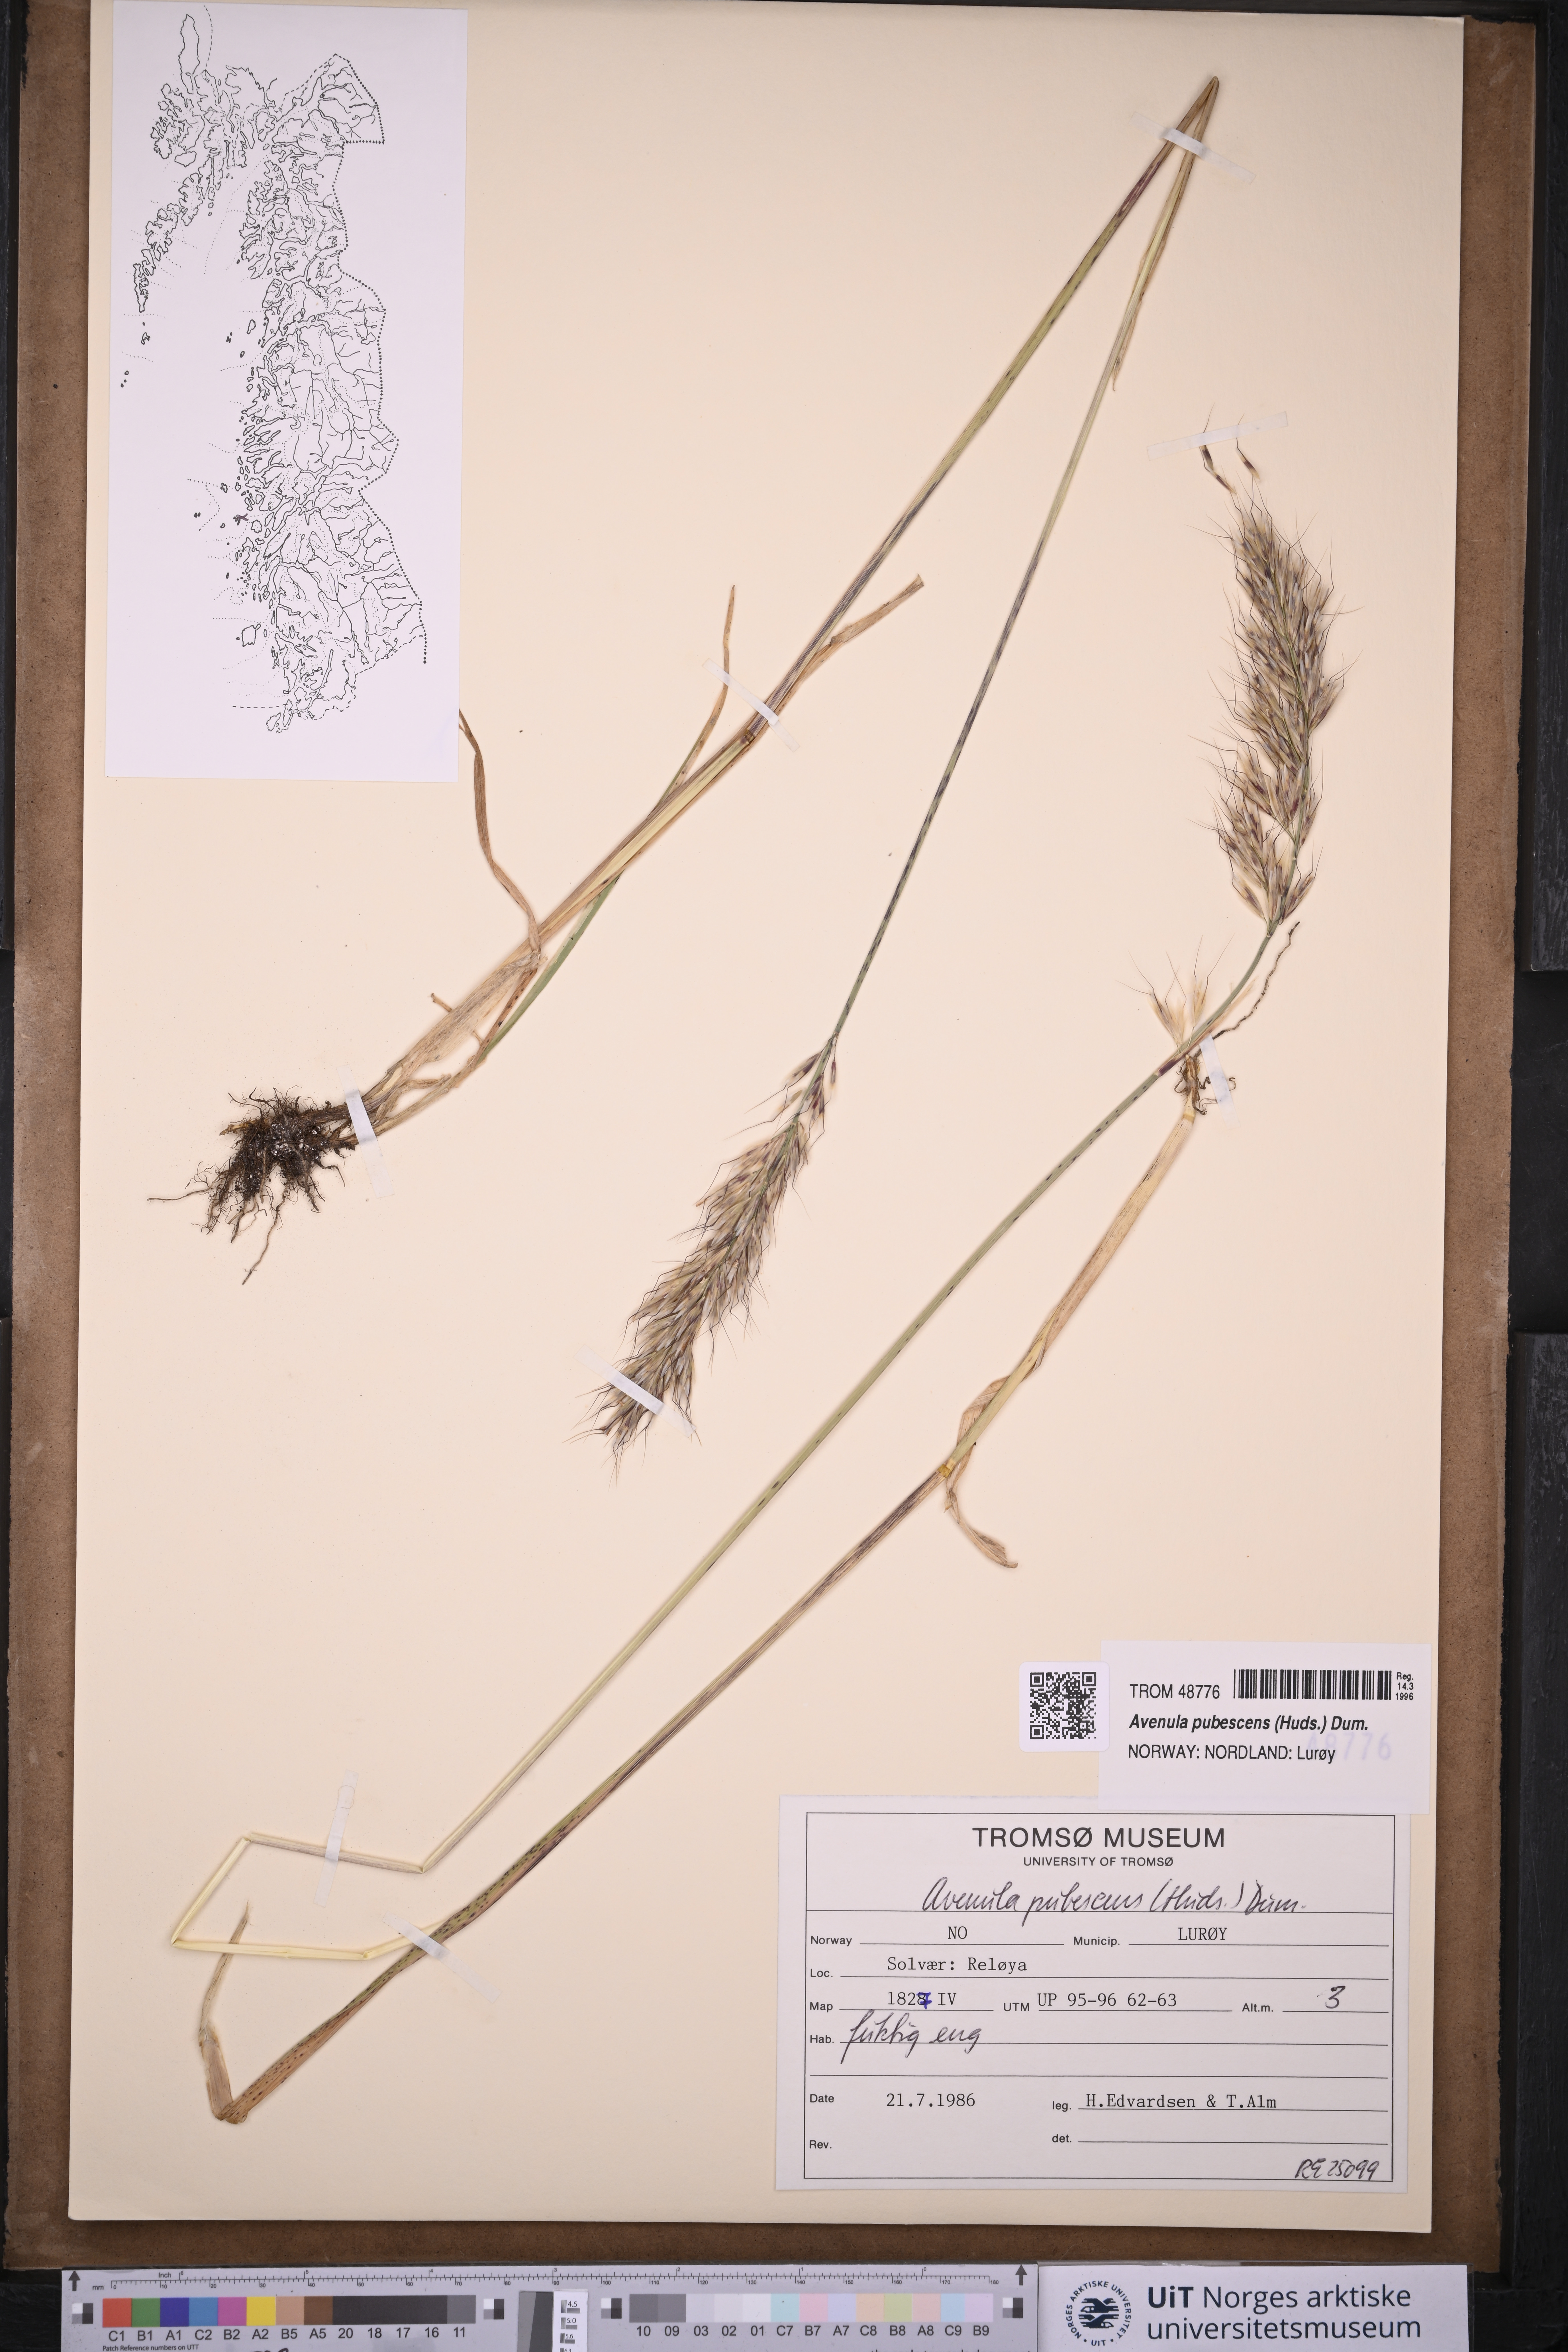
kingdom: Plantae
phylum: Tracheophyta
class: Liliopsida
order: Poales
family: Poaceae
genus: Avenula
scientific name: Avenula pubescens
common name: Downy alpine oatgrass
